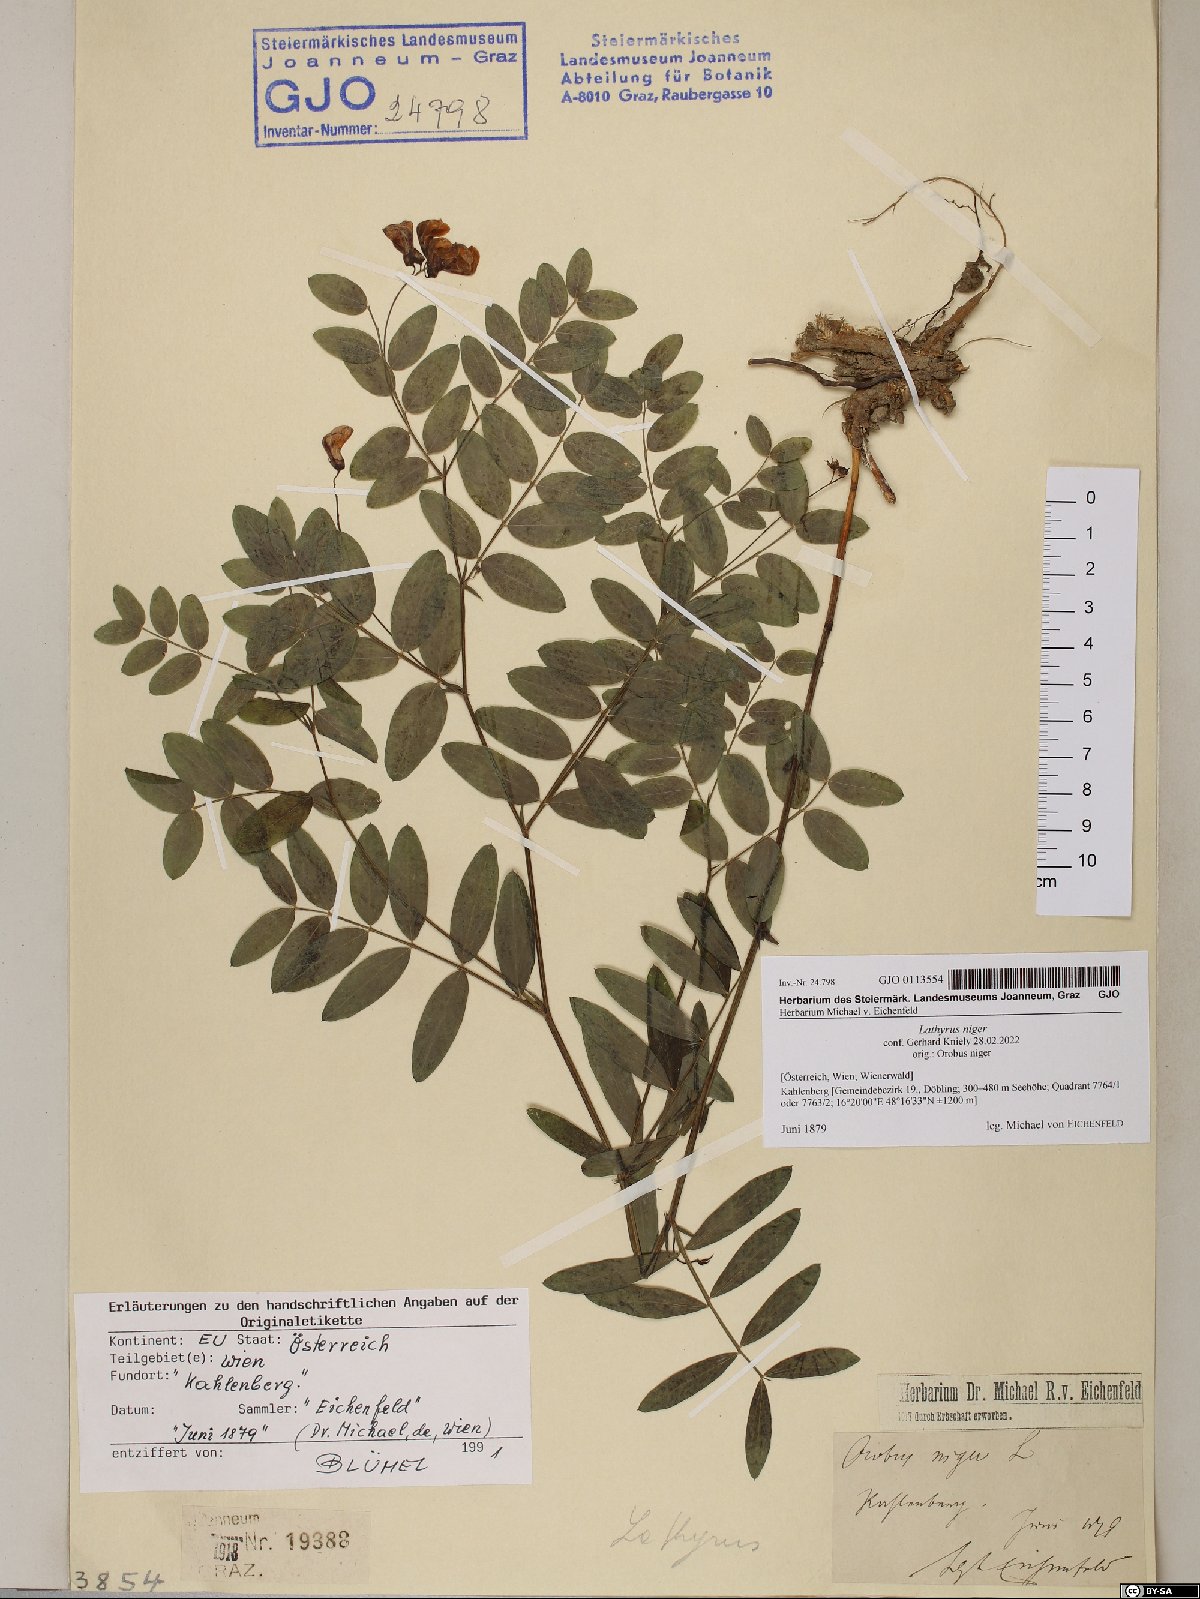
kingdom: Plantae
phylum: Tracheophyta
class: Magnoliopsida
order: Fabales
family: Fabaceae
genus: Lathyrus
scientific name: Lathyrus niger
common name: Black pea
